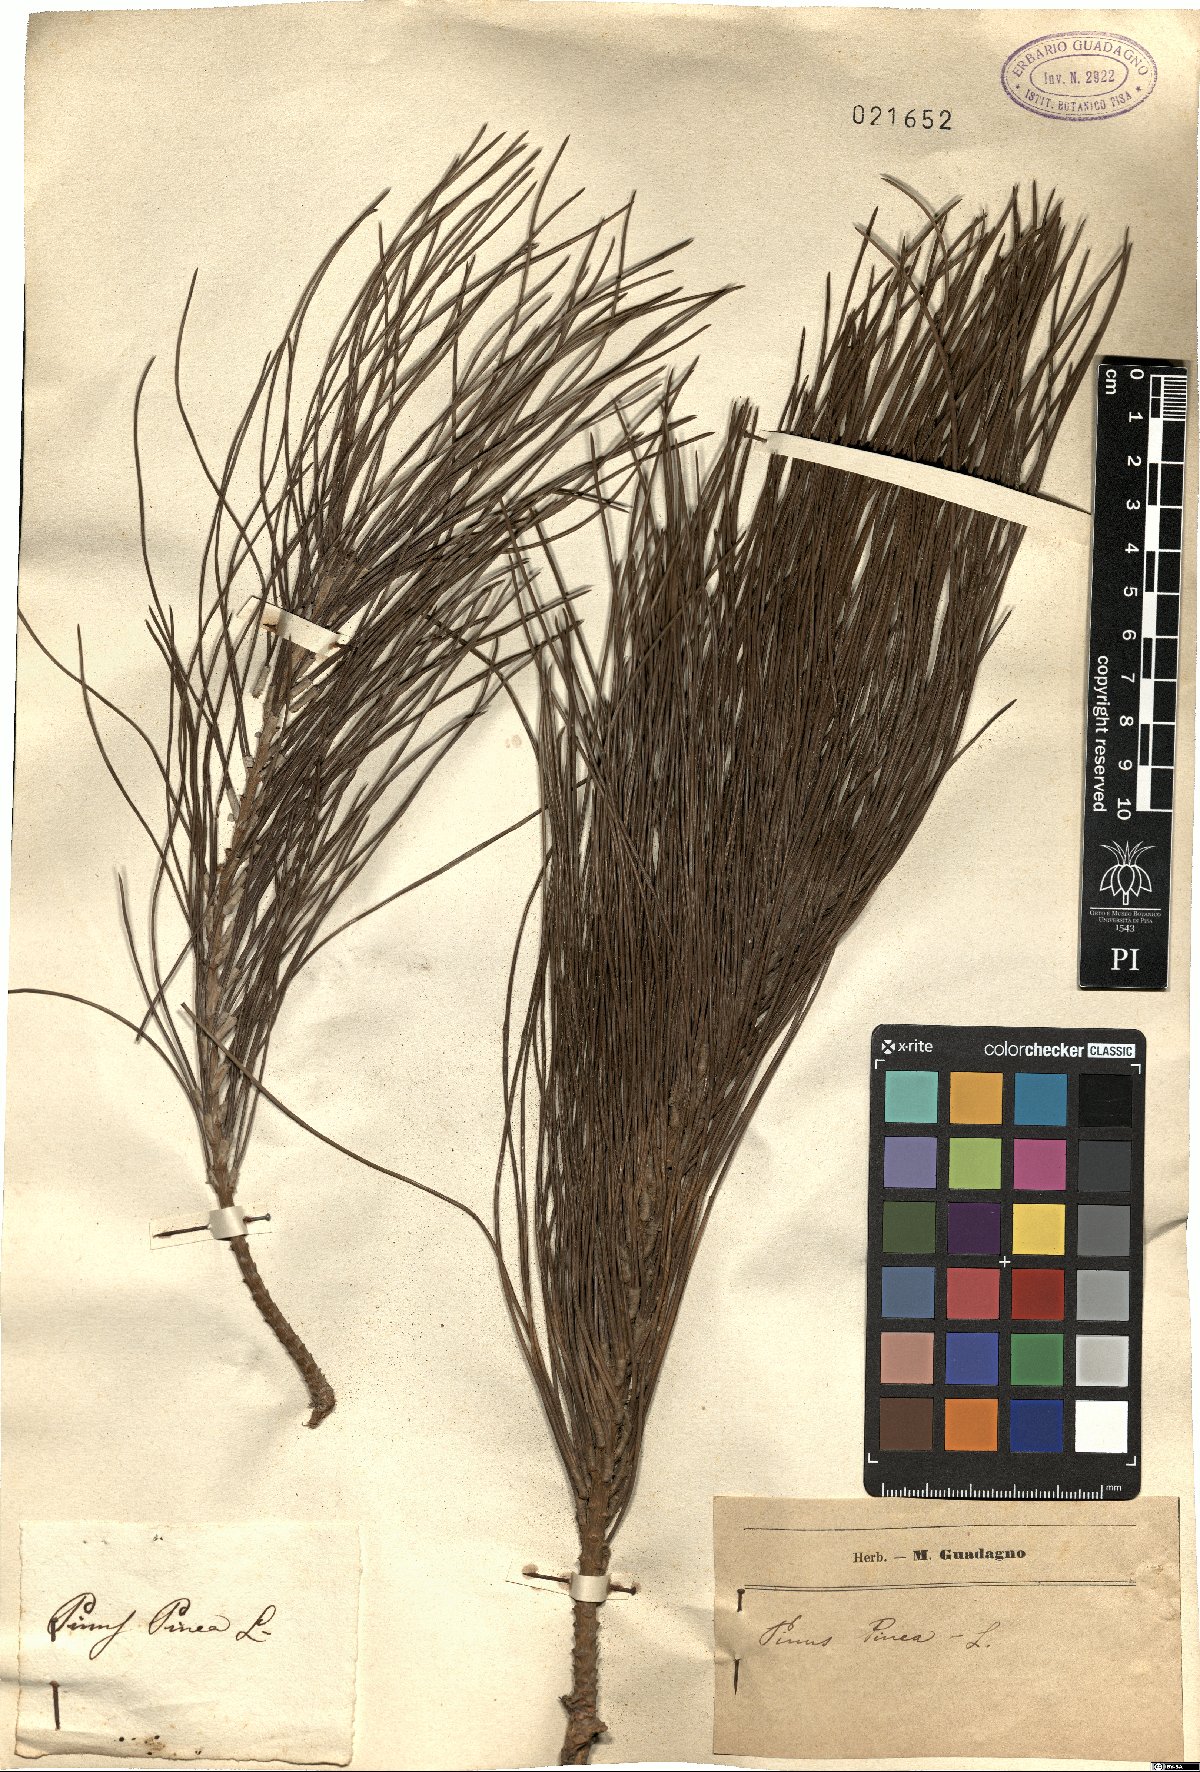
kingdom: Plantae
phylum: Tracheophyta
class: Pinopsida
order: Pinales
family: Pinaceae
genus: Pinus
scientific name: Pinus pinea
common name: Italian stone pine
